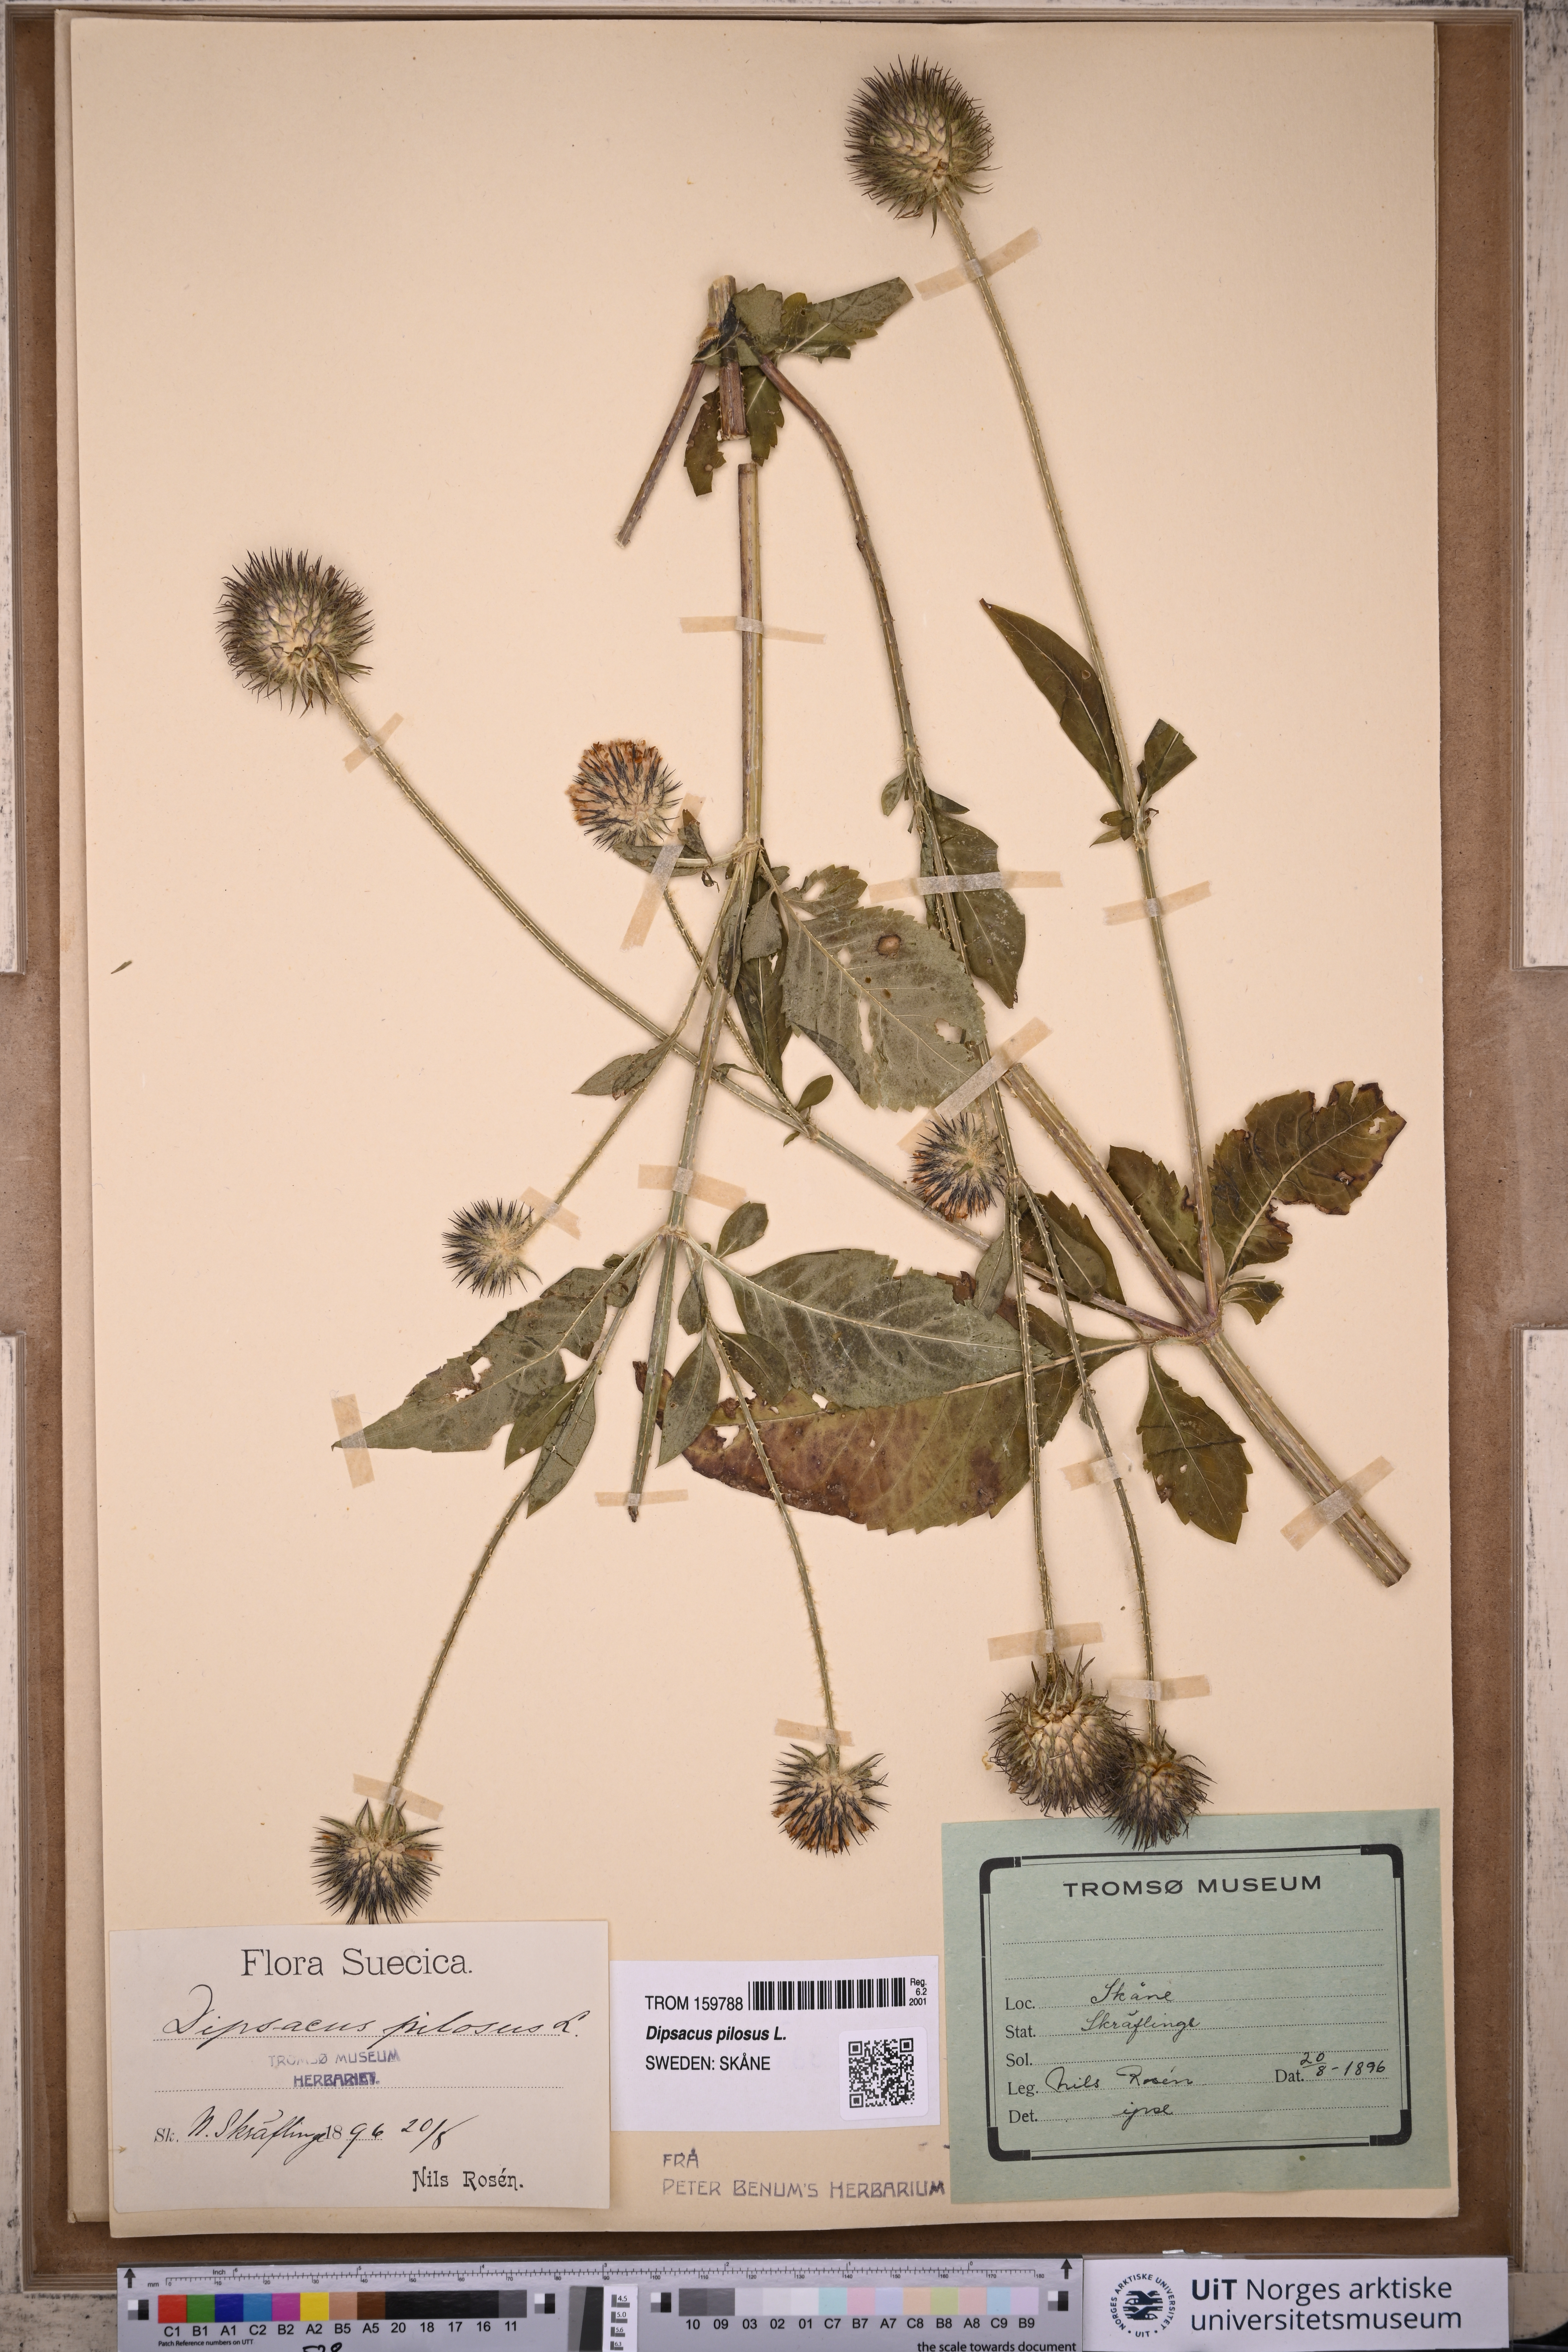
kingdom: Plantae
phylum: Tracheophyta
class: Magnoliopsida
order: Dipsacales
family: Caprifoliaceae
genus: Dipsacus
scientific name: Dipsacus pilosus
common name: Small teasel
